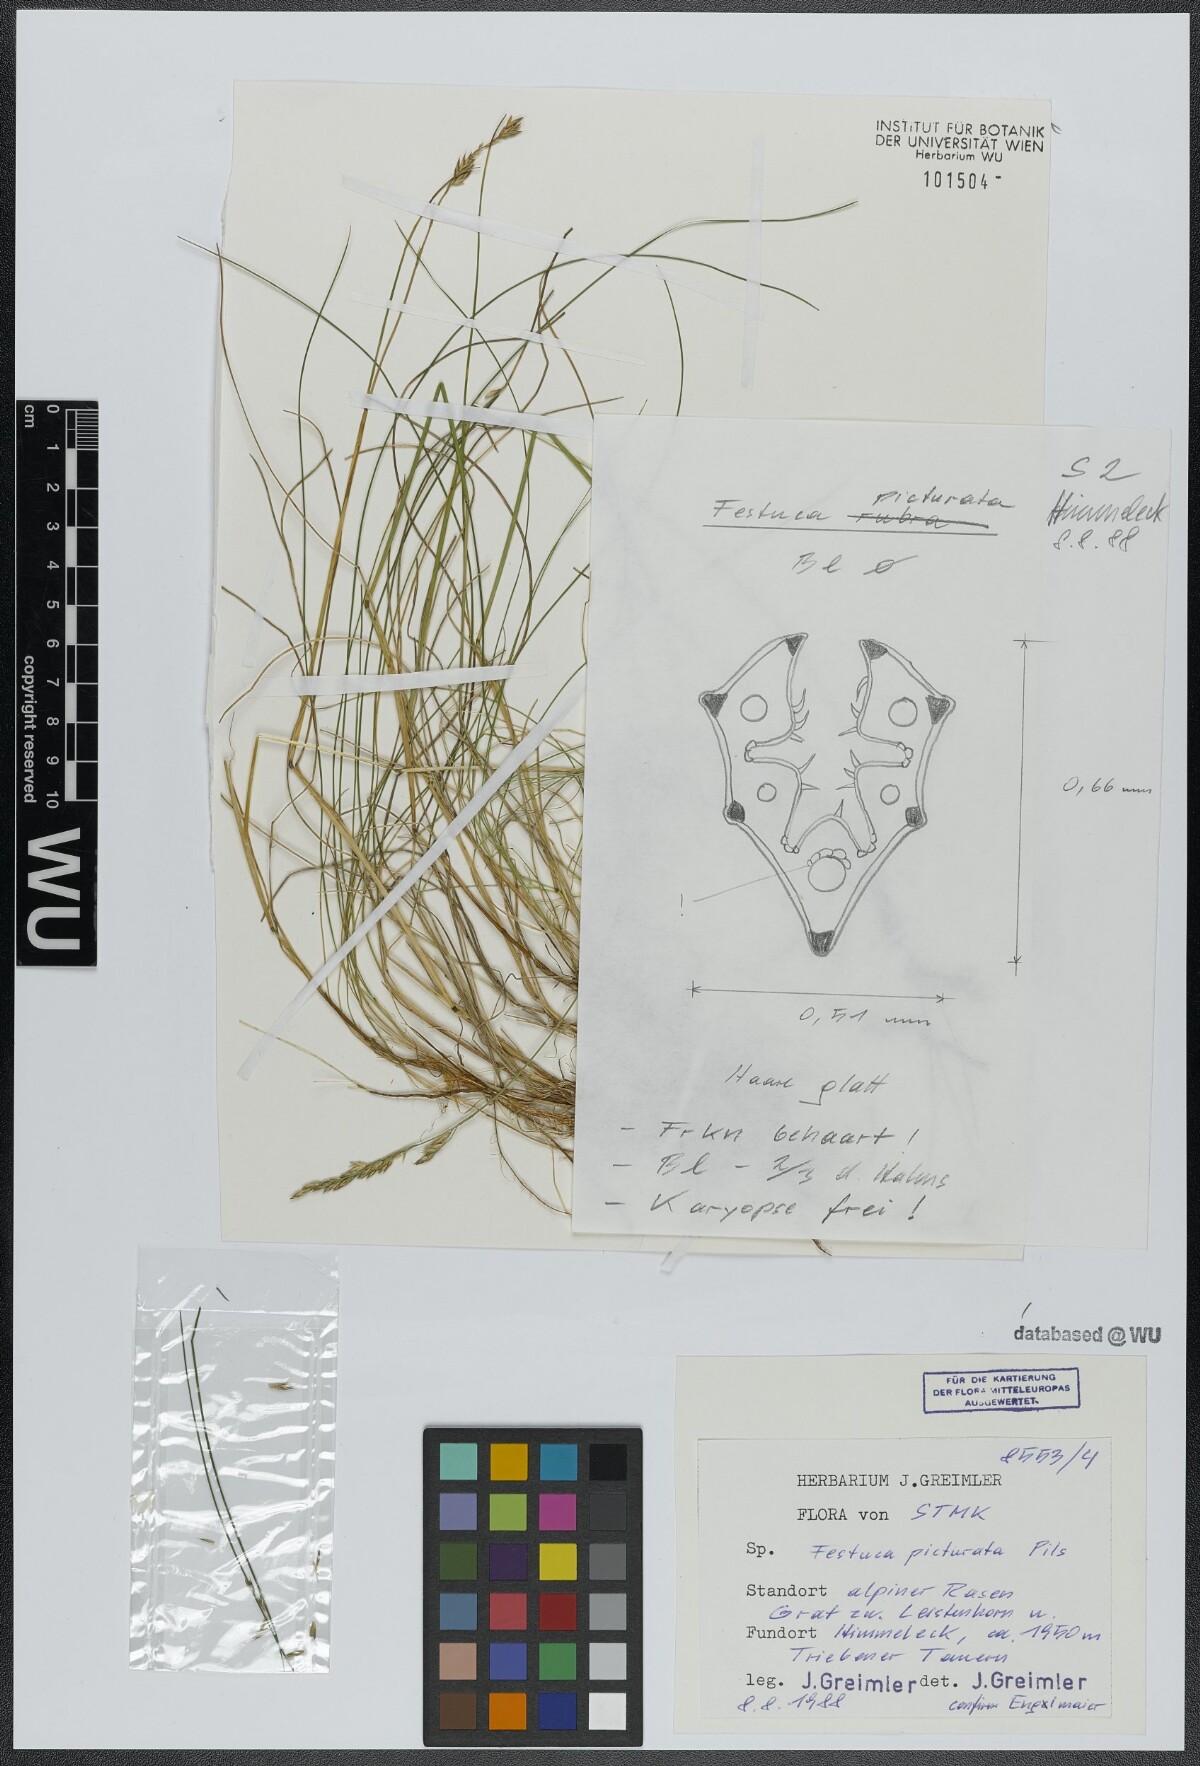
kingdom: Plantae
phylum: Tracheophyta
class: Liliopsida
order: Poales
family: Poaceae
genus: Festuca
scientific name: Festuca picturata
